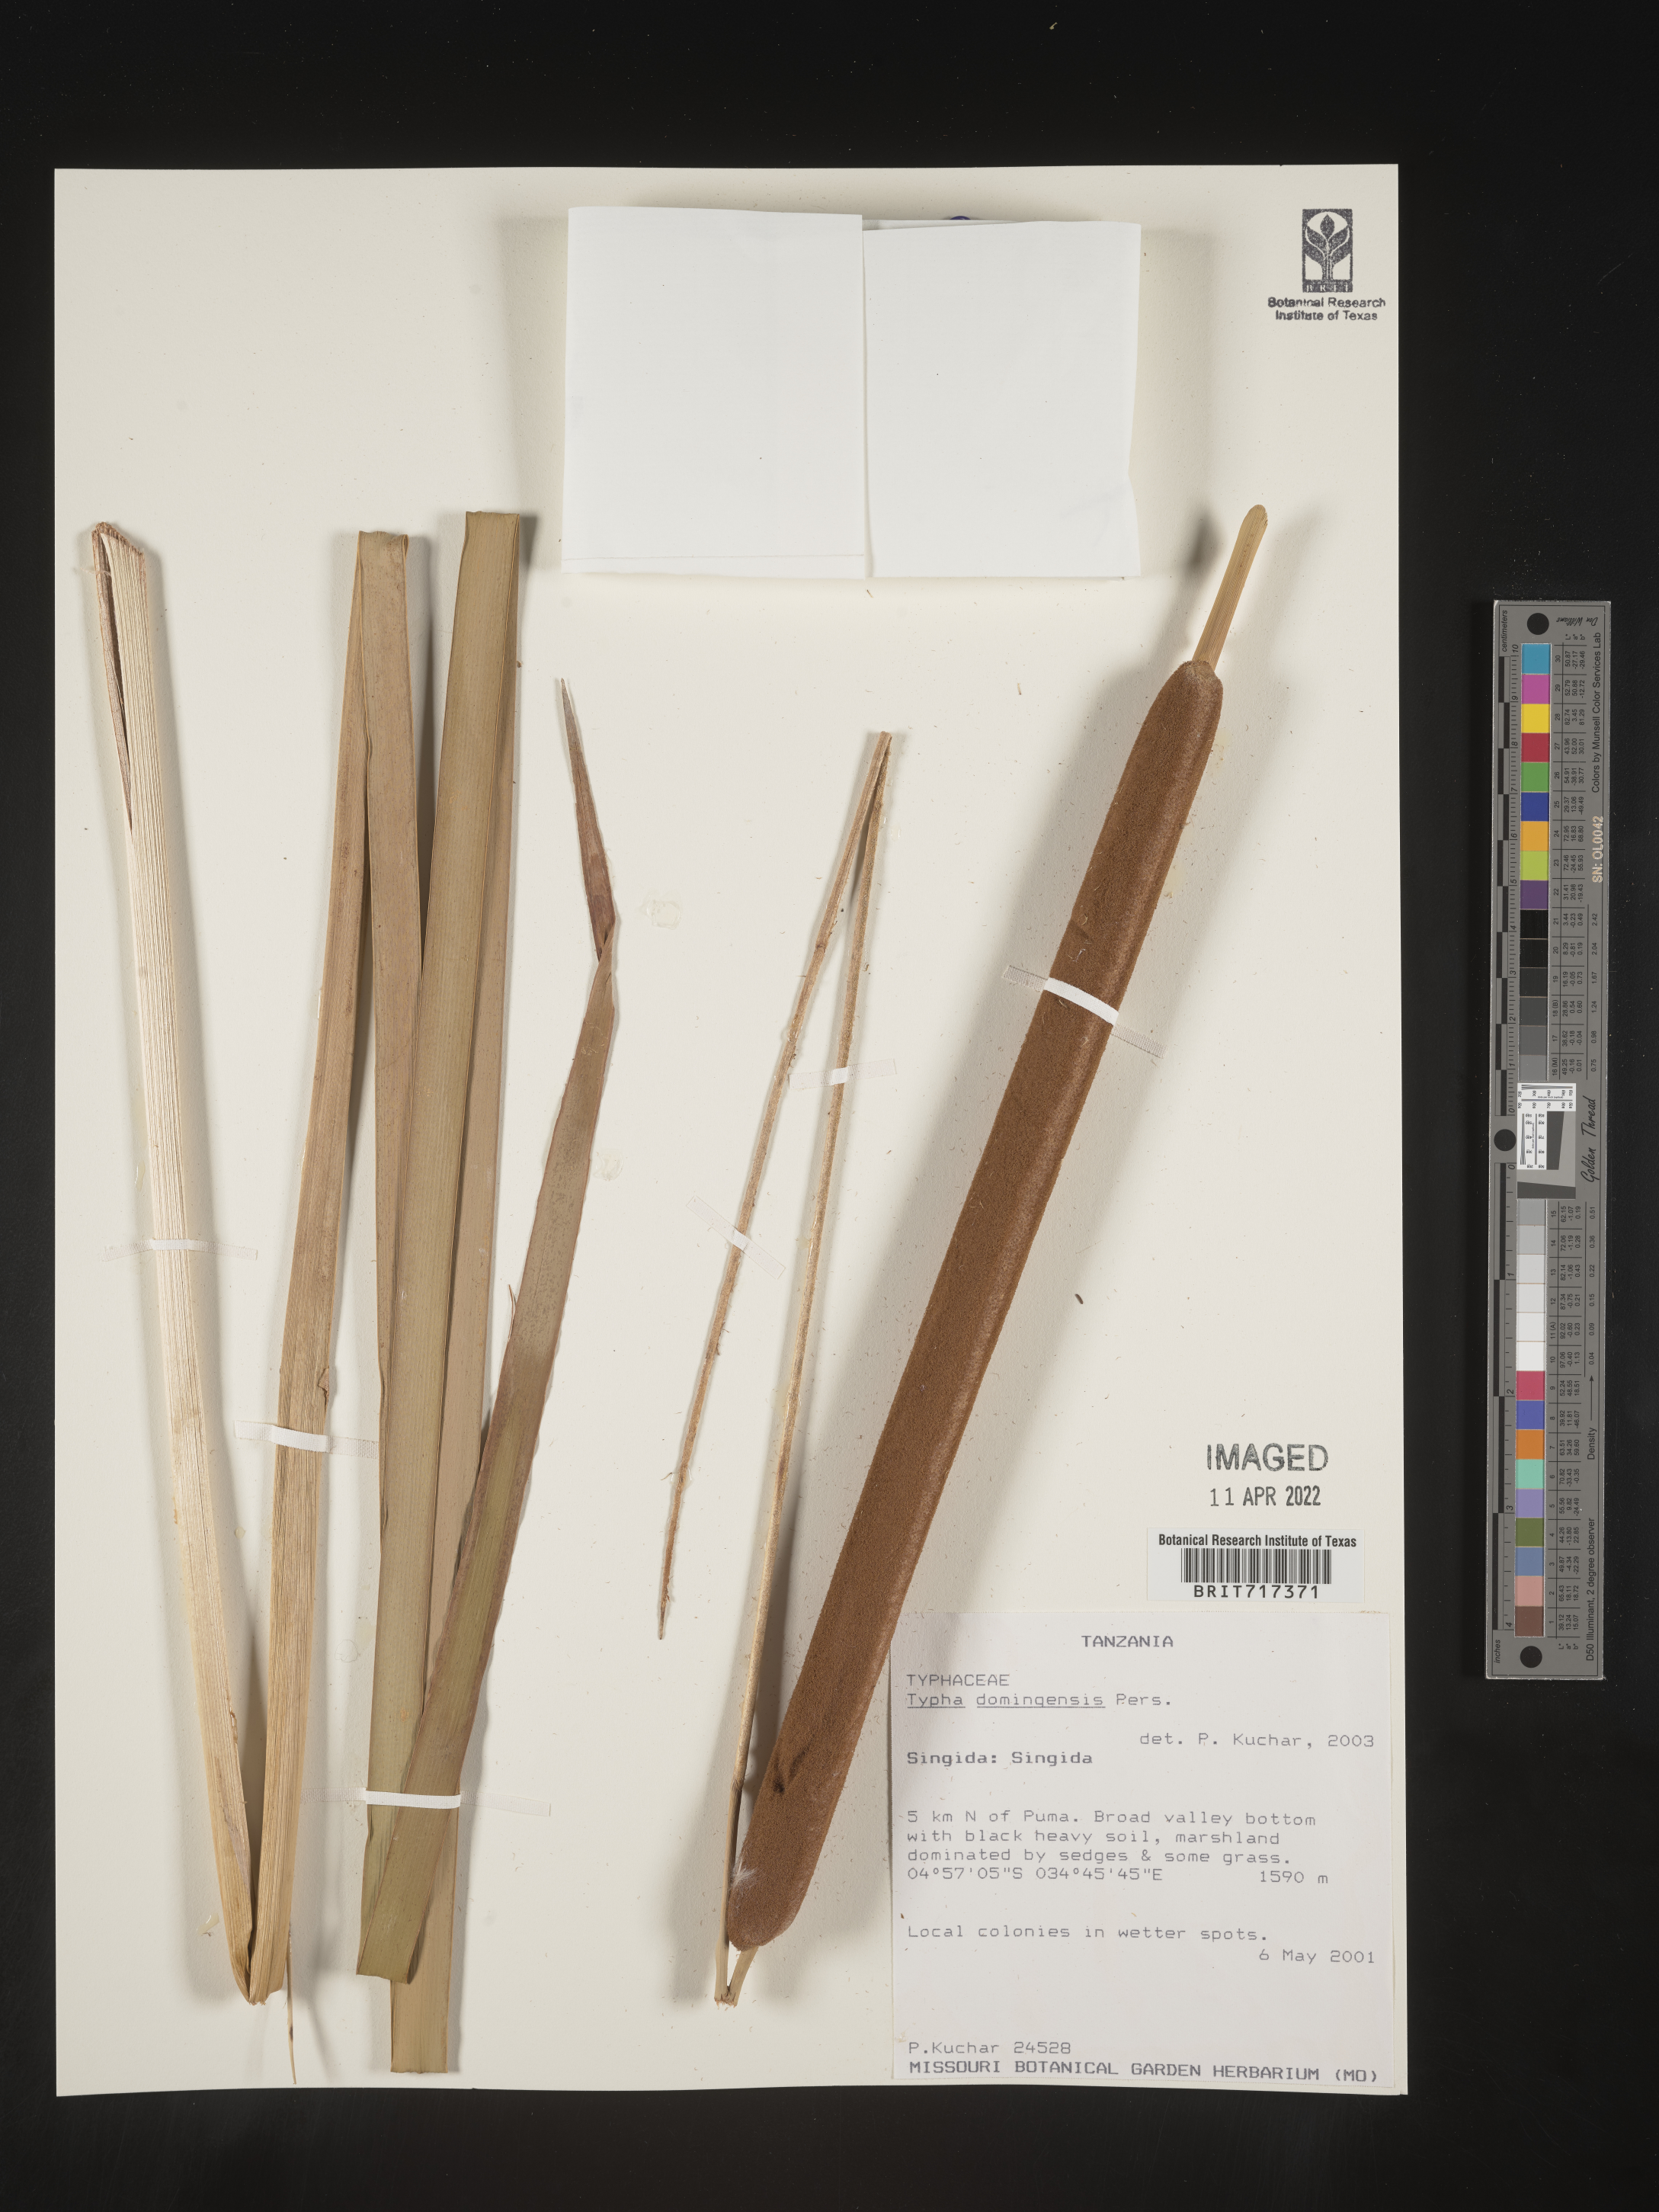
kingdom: Plantae
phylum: Tracheophyta
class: Liliopsida
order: Poales
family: Typhaceae
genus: Typha
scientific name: Typha
